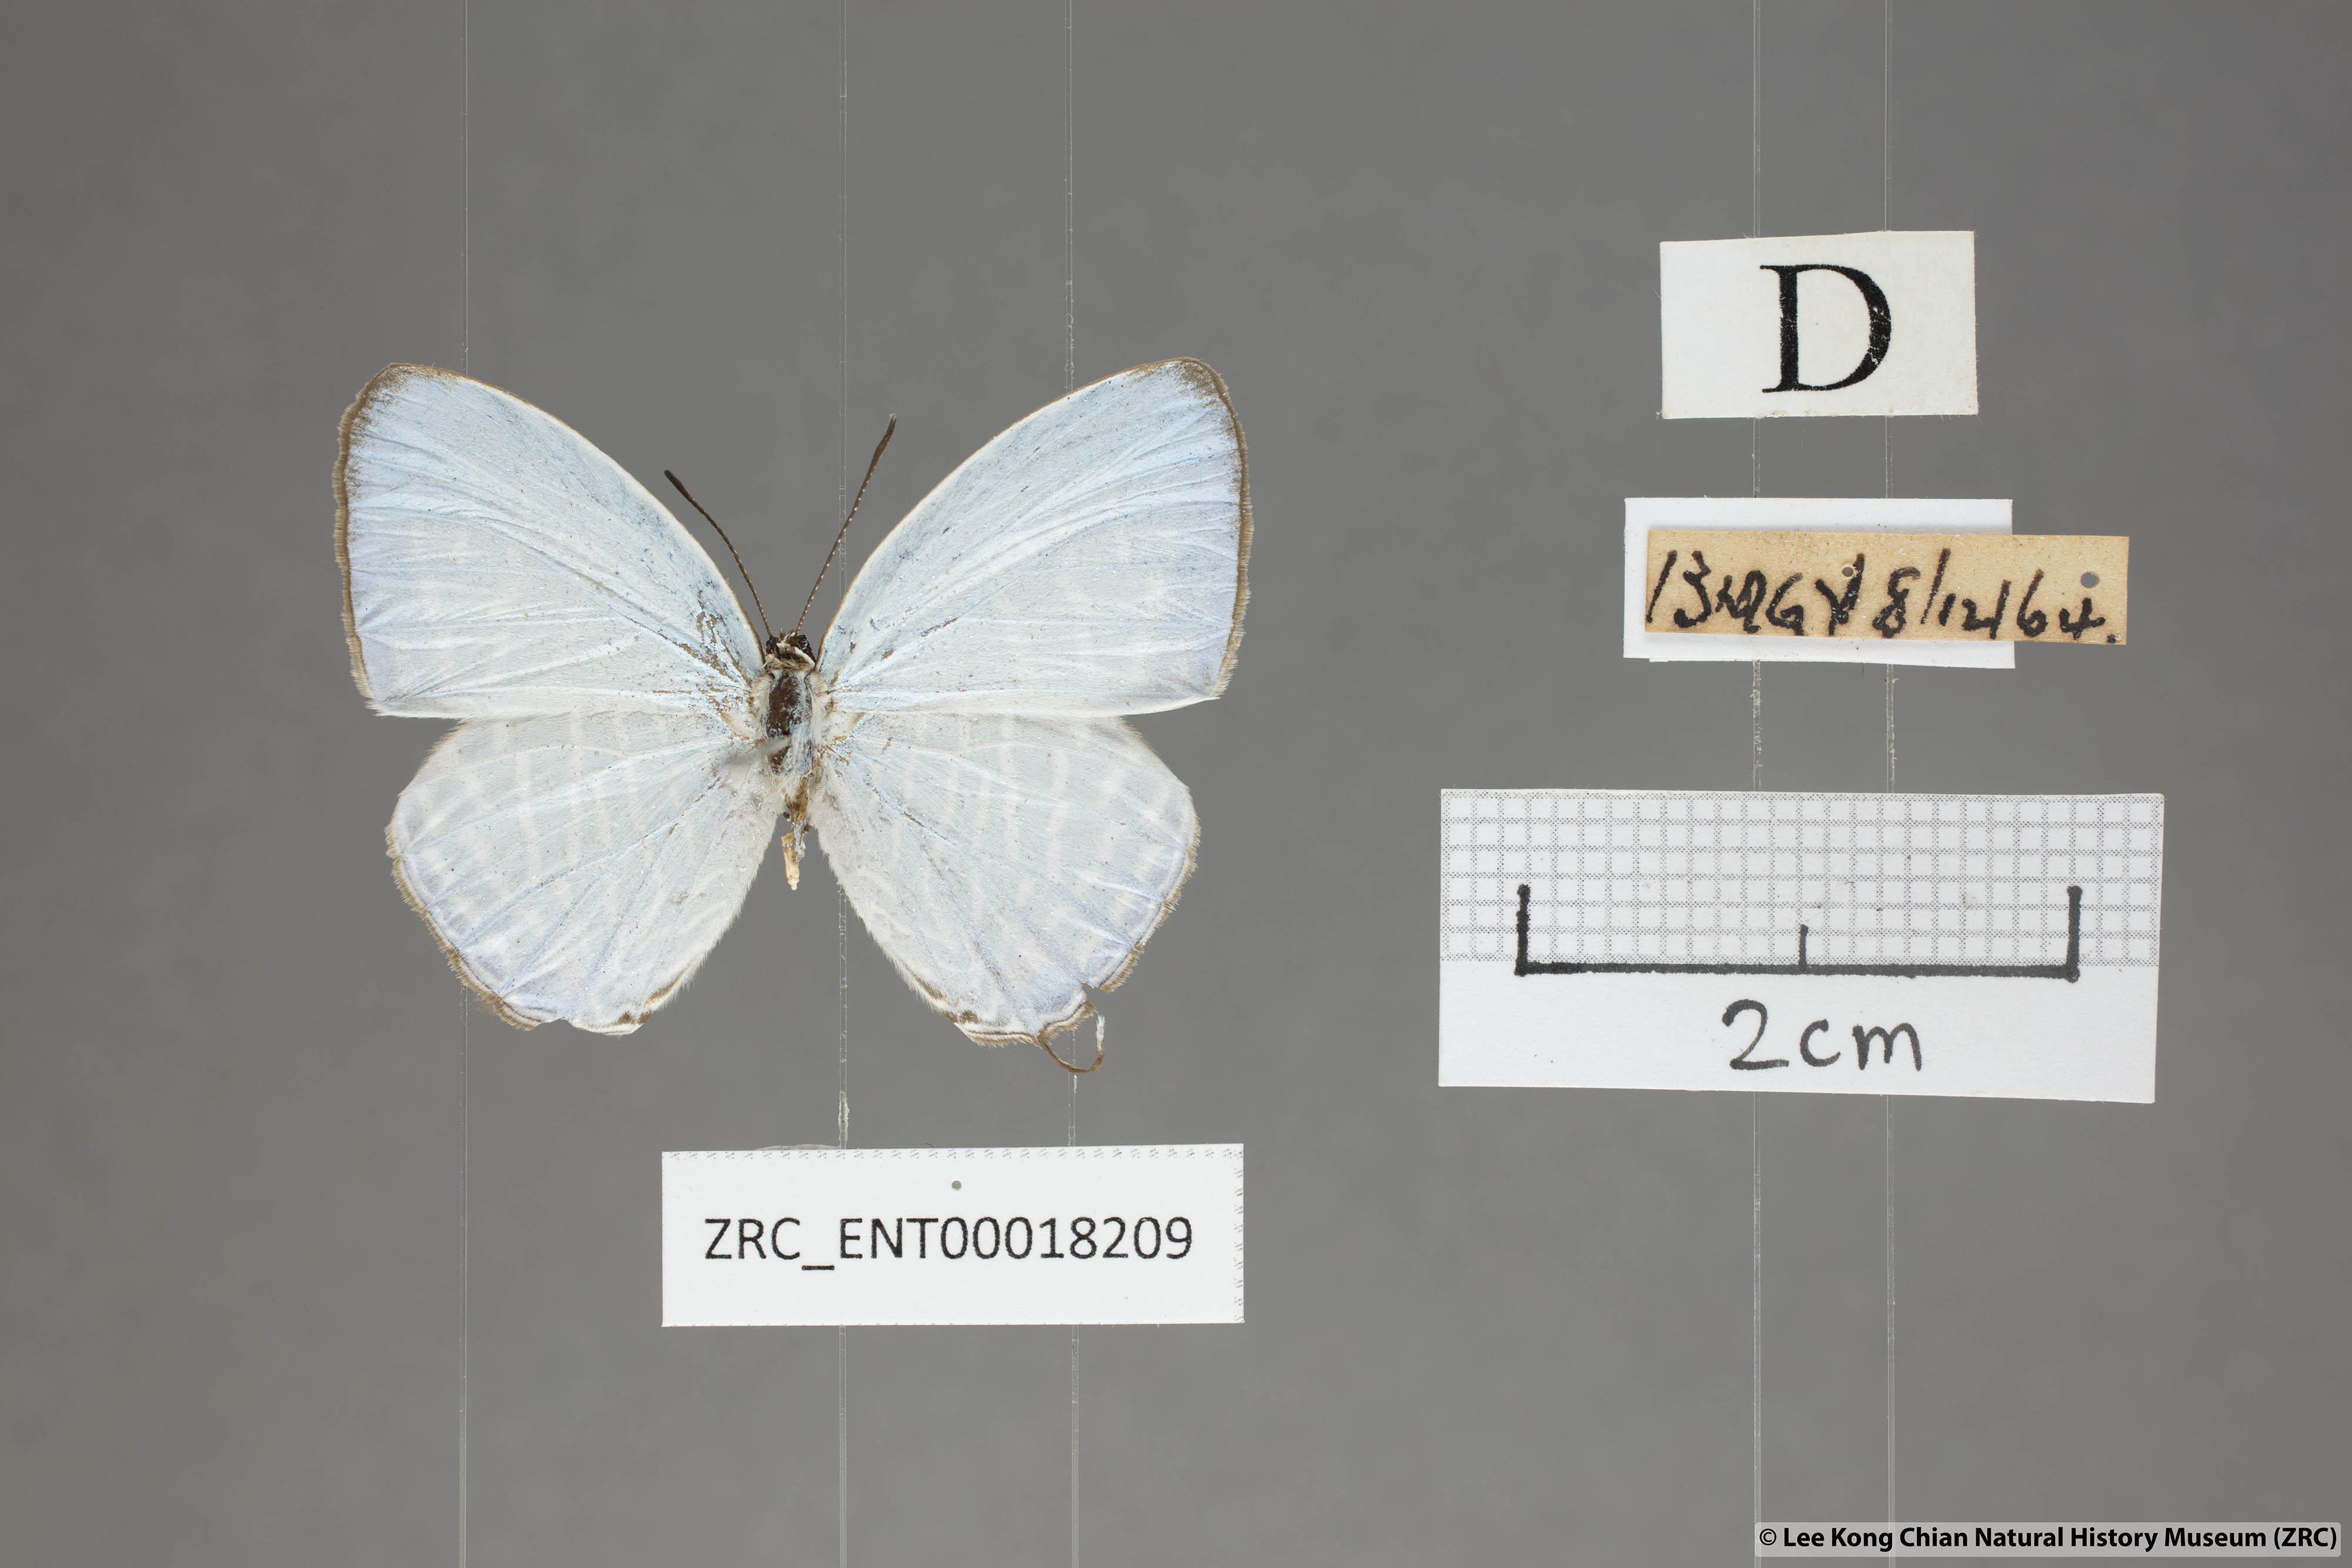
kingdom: Animalia
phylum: Arthropoda
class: Insecta
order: Lepidoptera
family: Lycaenidae
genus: Jamides
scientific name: Jamides zebra
